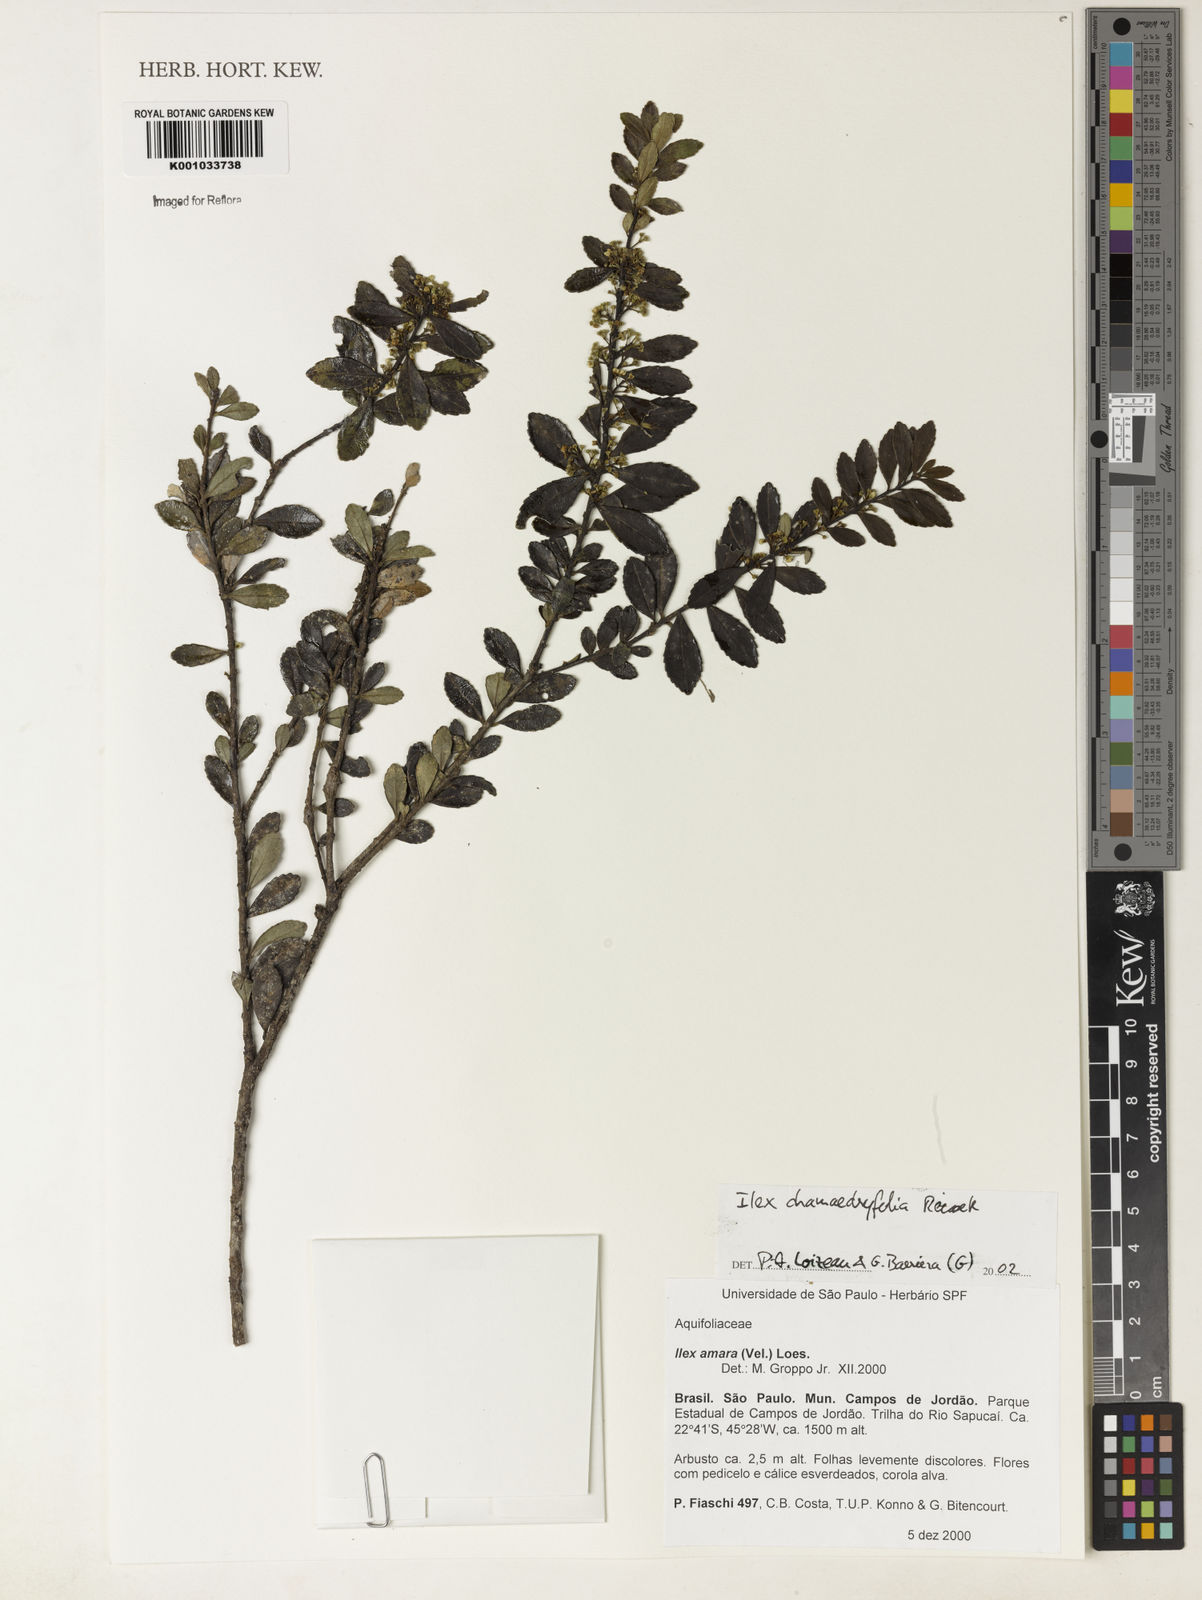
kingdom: Plantae
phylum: Tracheophyta
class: Magnoliopsida
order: Aquifoliales
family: Aquifoliaceae
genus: Ilex
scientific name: Ilex chamaedryfolia
